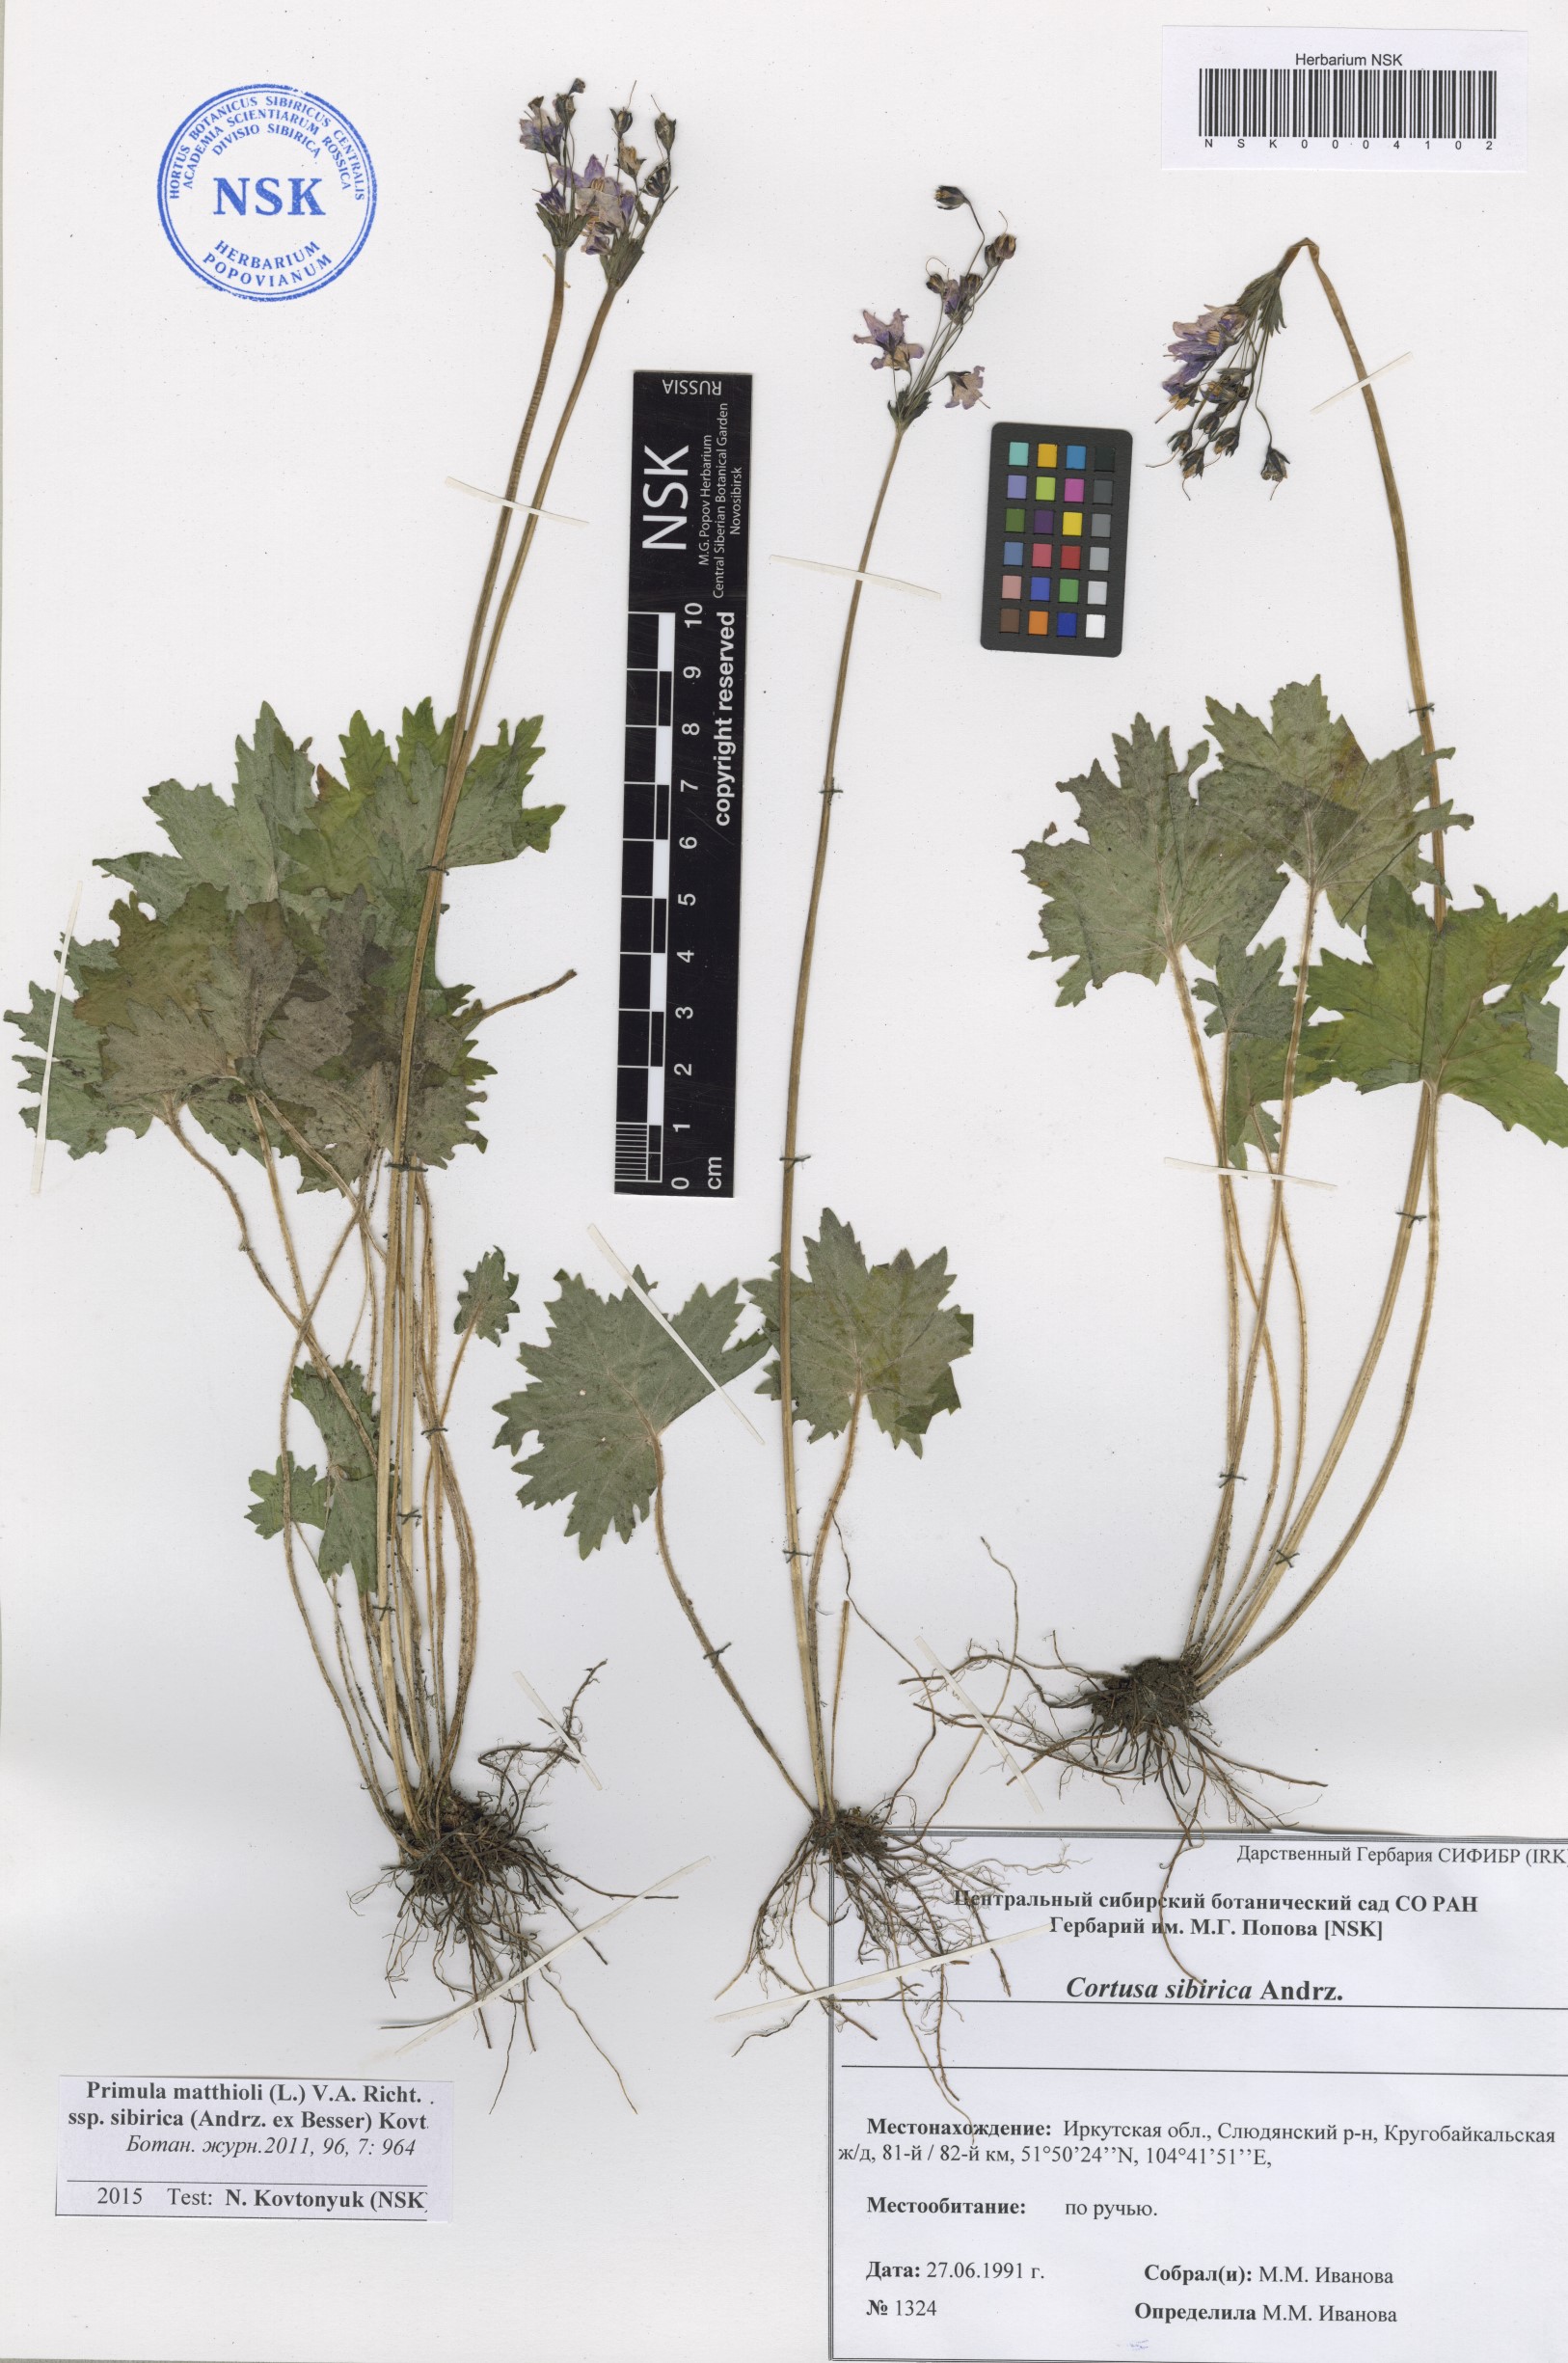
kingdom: Plantae
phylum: Tracheophyta
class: Magnoliopsida
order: Ericales
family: Primulaceae
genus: Primula
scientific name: Primula matthioli
